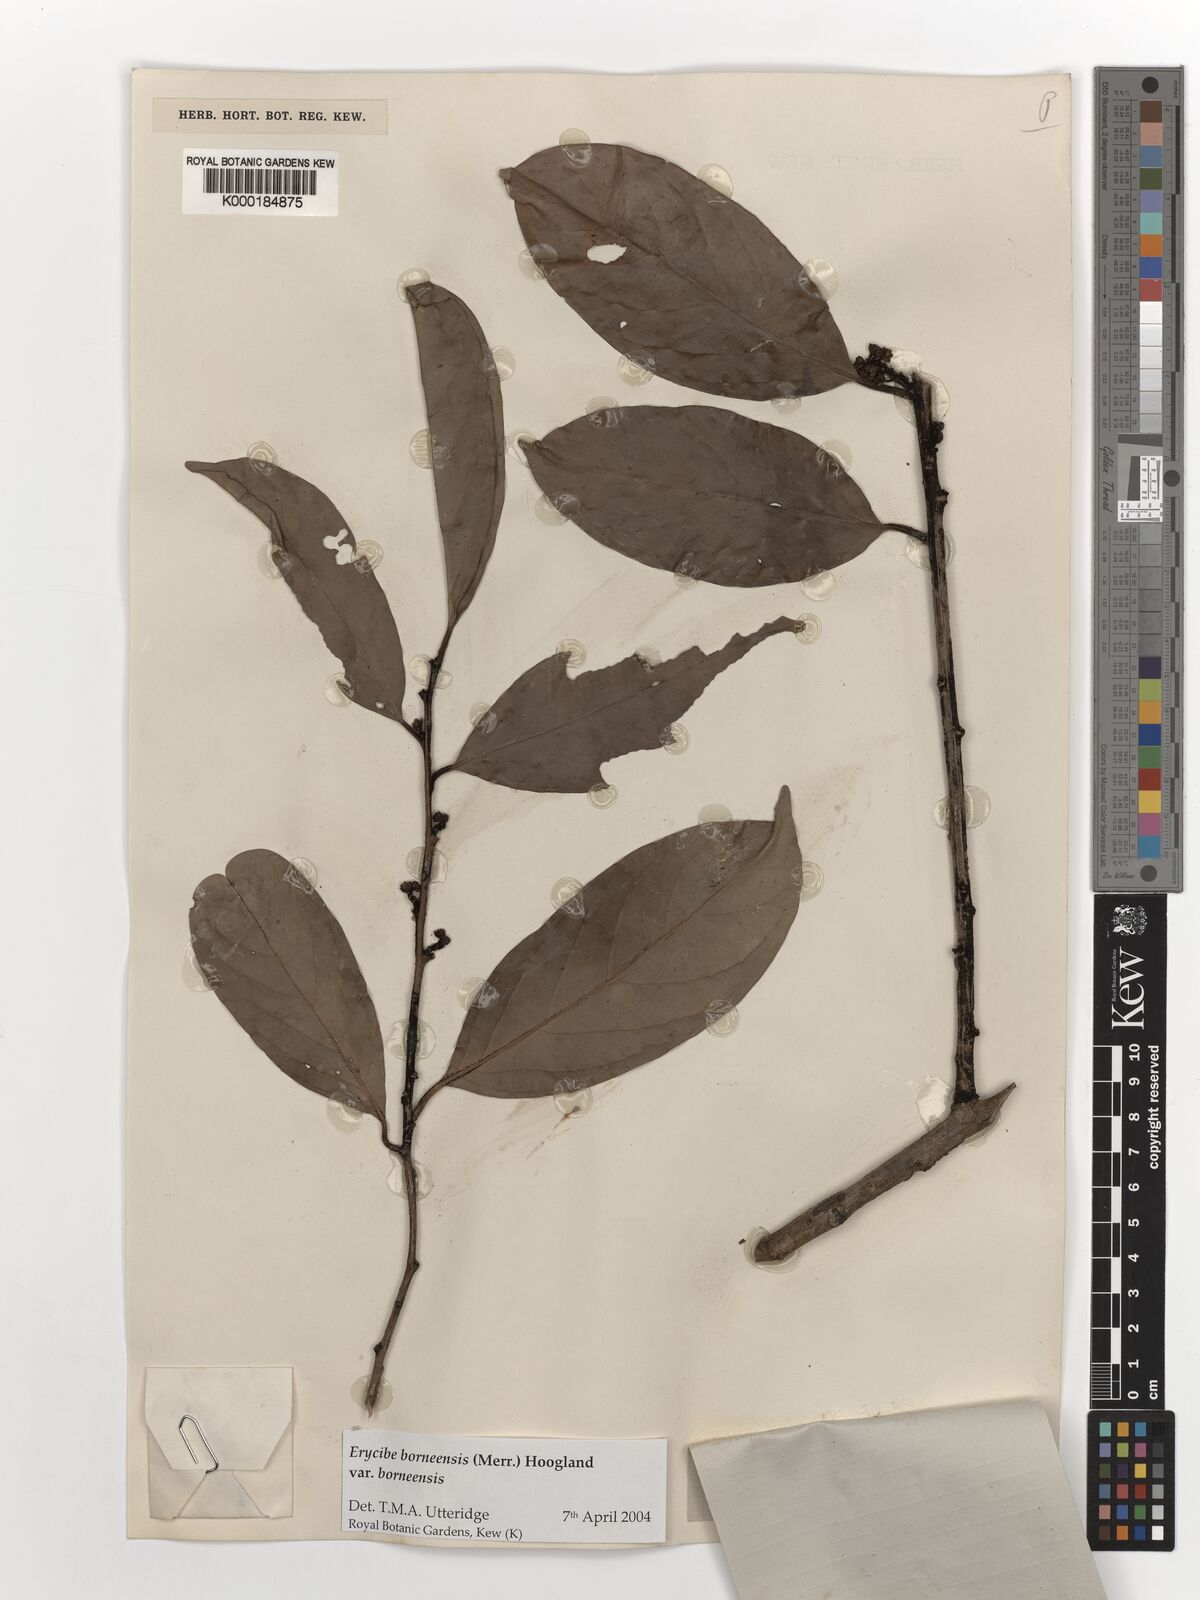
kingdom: Plantae
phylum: Tracheophyta
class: Magnoliopsida
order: Solanales
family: Convolvulaceae
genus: Erycibe
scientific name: Erycibe borneensis
